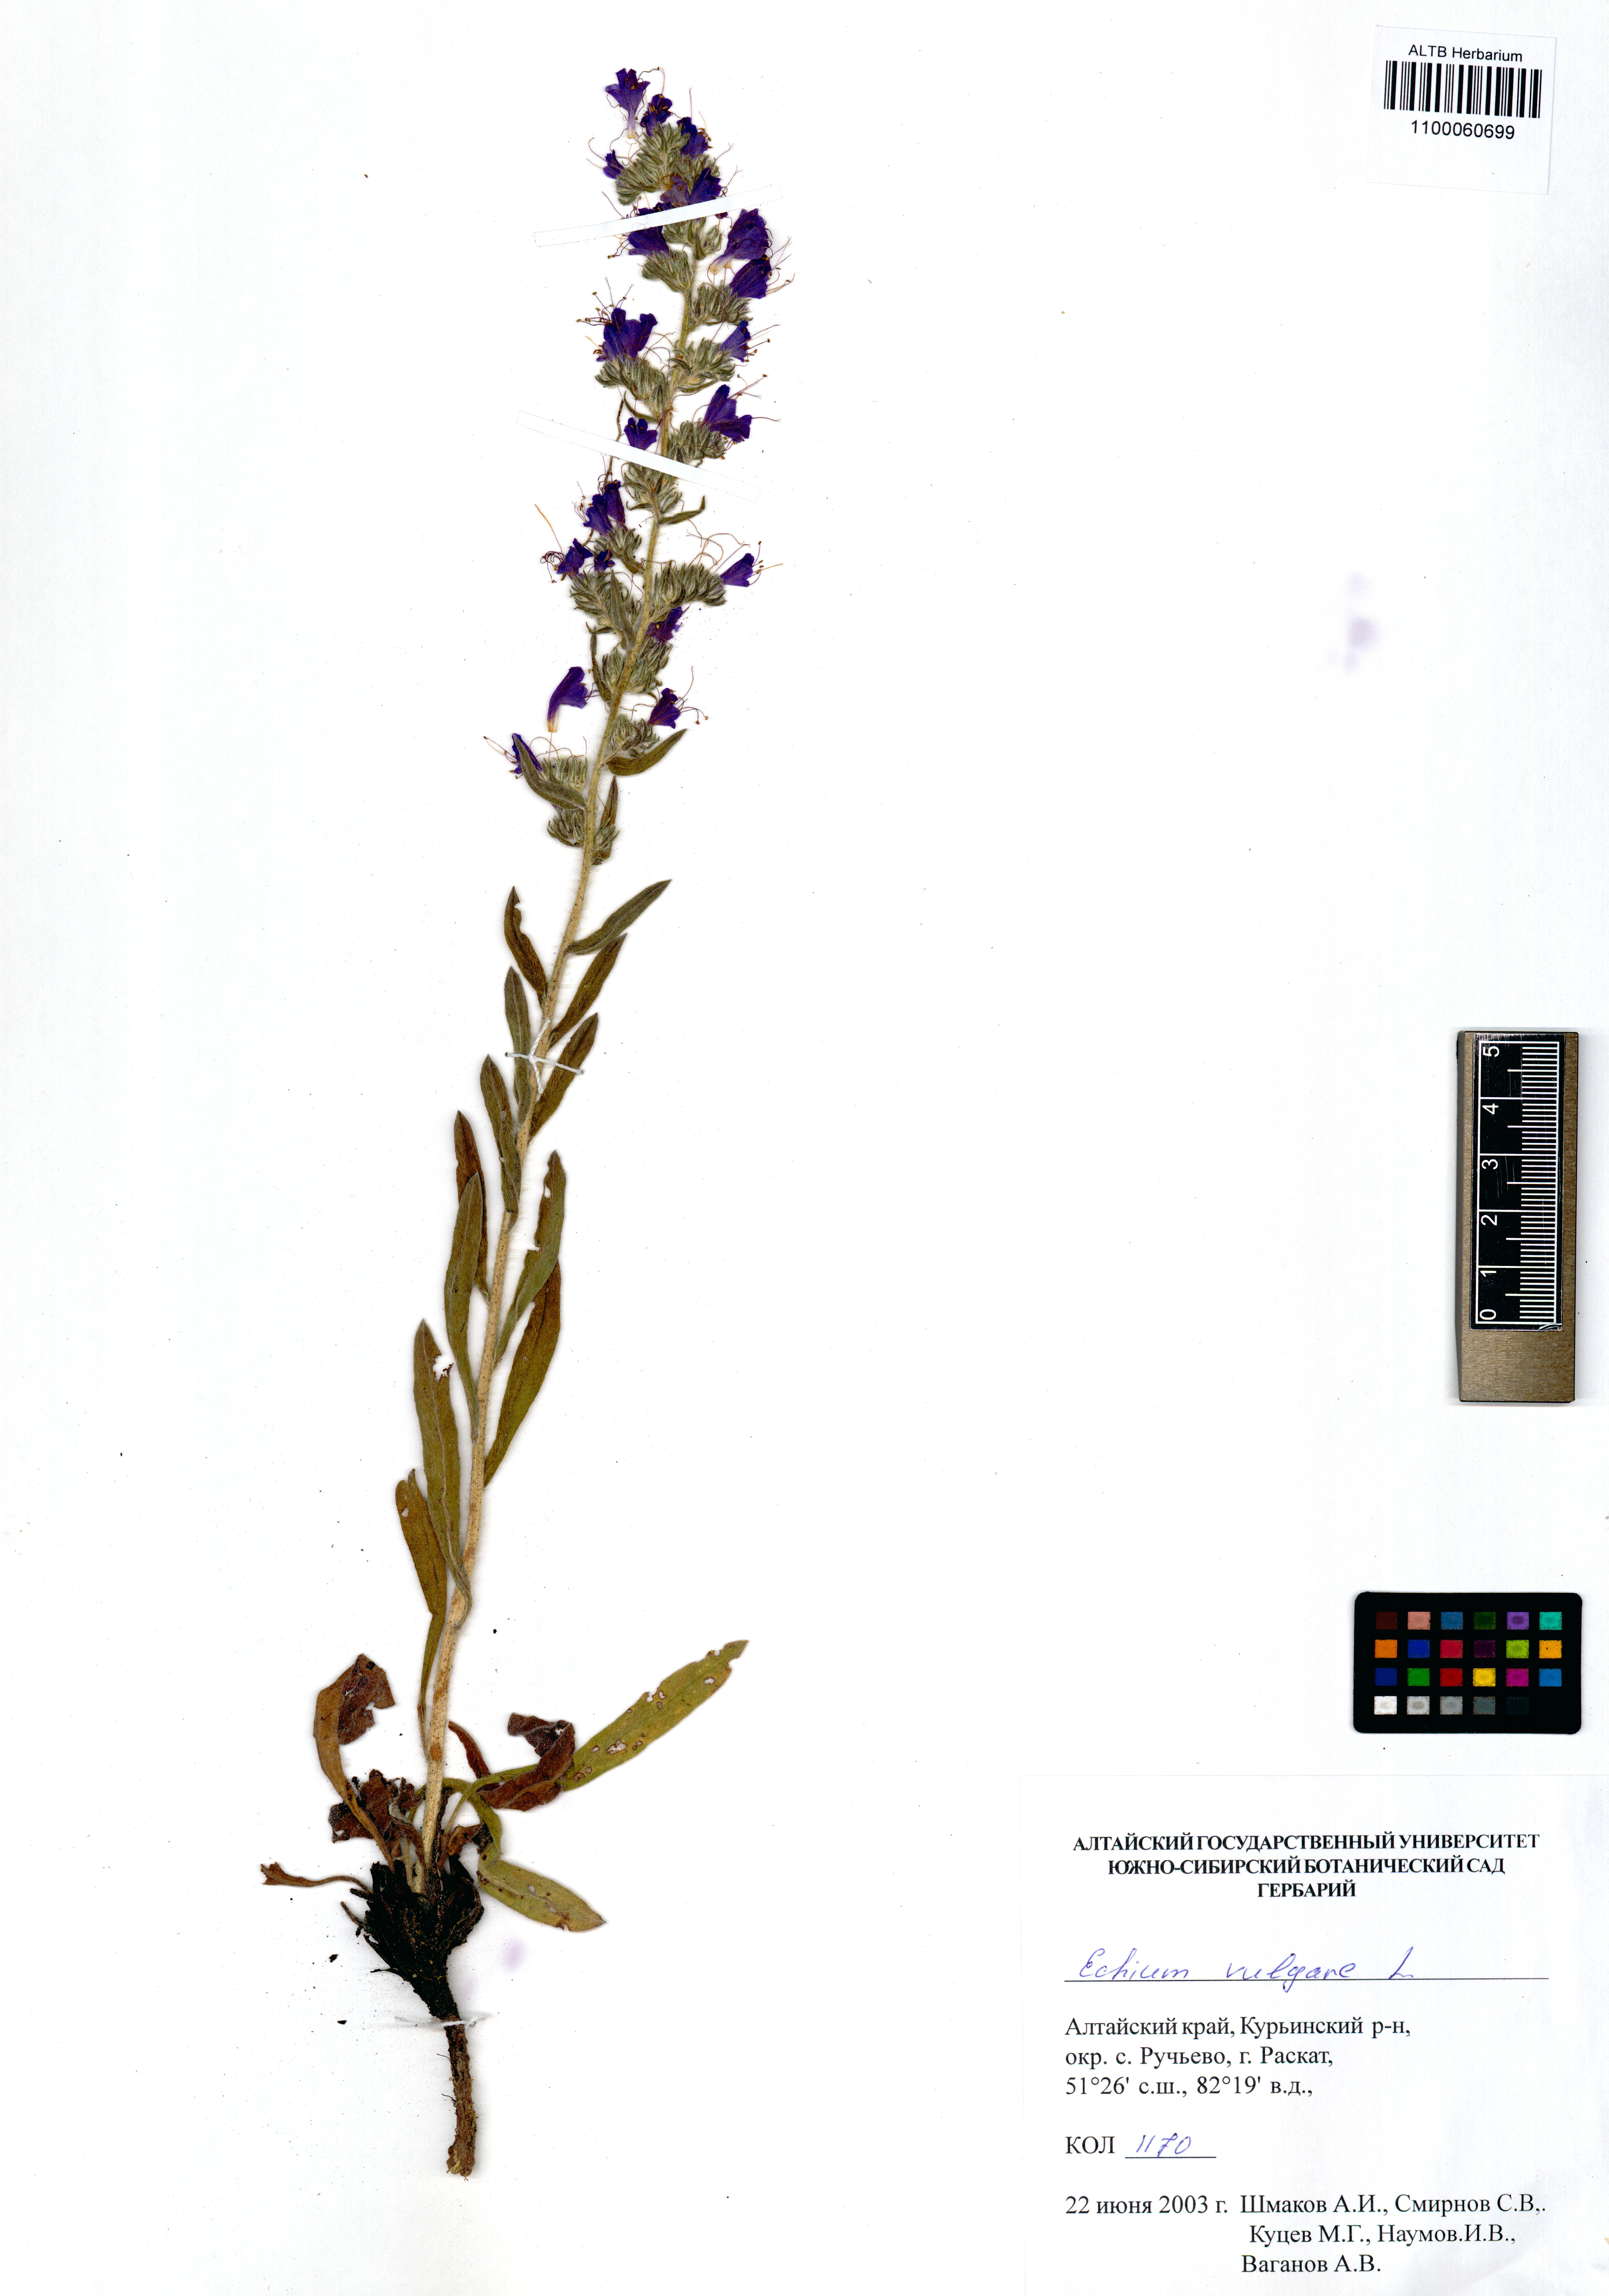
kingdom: Plantae
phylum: Tracheophyta
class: Magnoliopsida
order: Boraginales
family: Boraginaceae
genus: Echium
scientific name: Echium vulgare
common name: Common viper's bugloss
